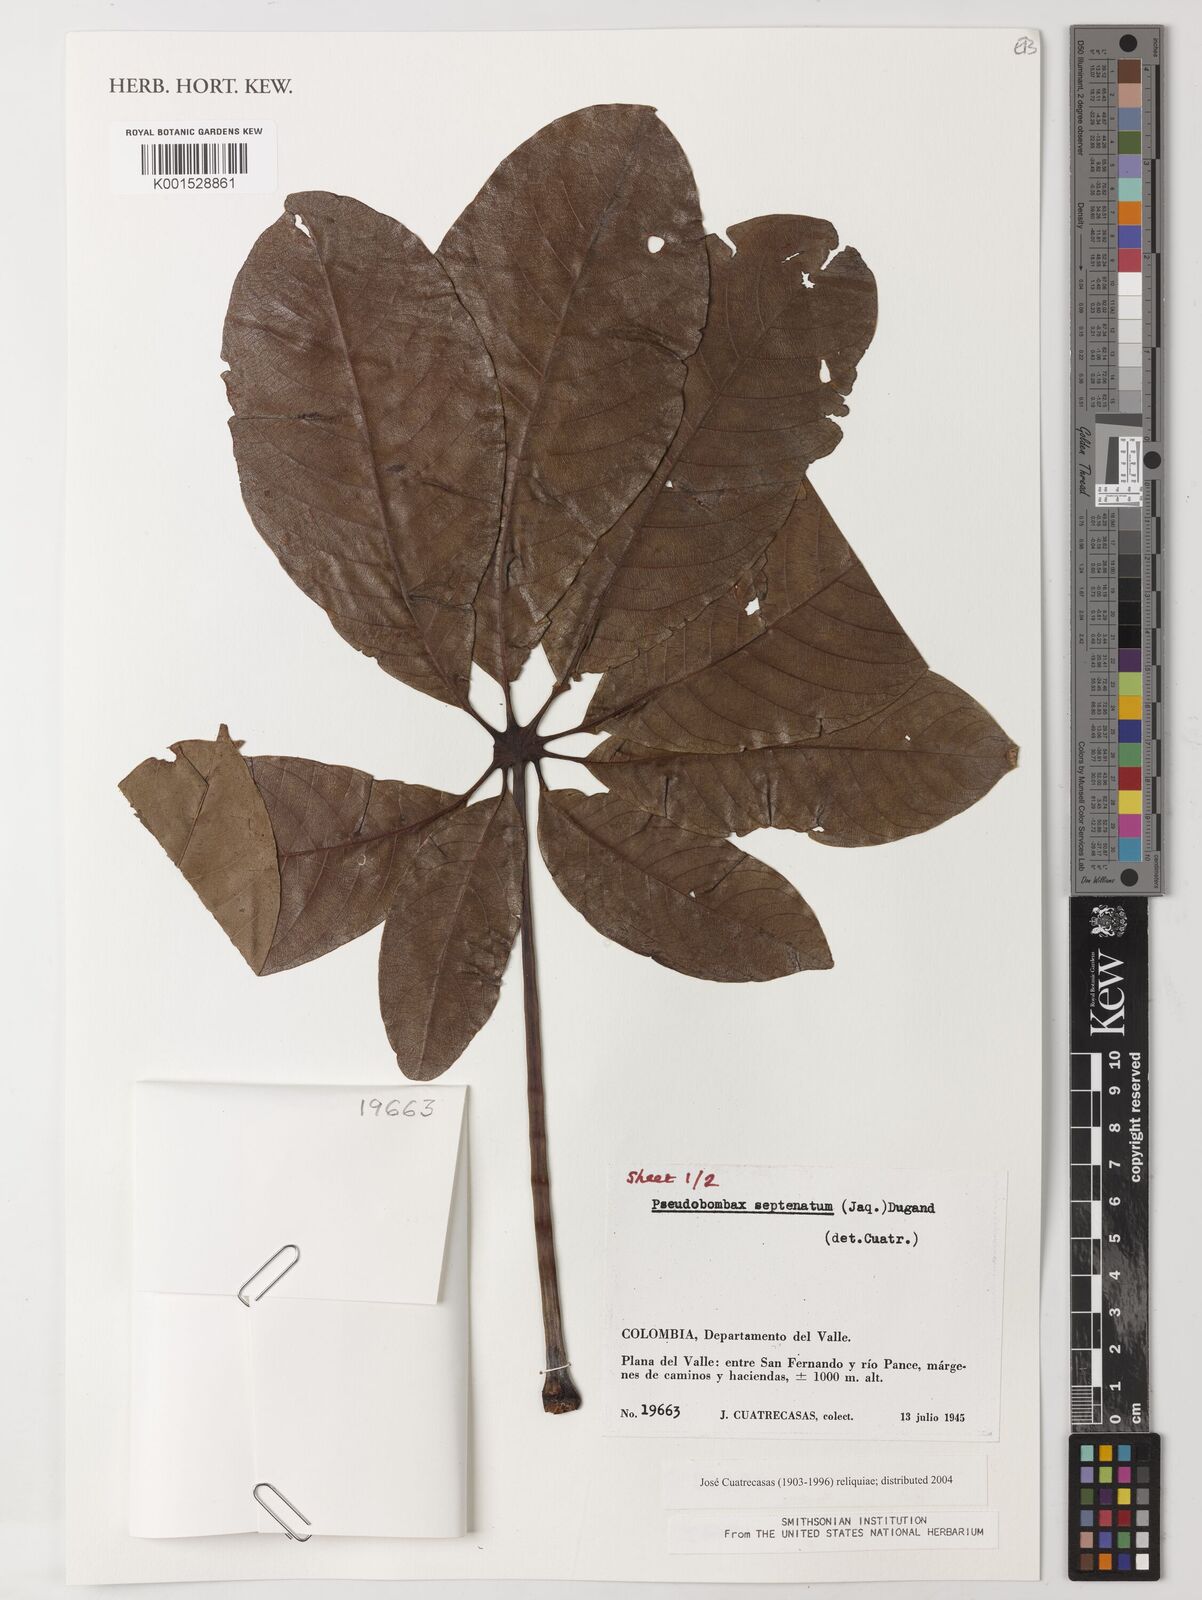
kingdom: Plantae
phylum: Tracheophyta
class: Magnoliopsida
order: Malvales
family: Malvaceae
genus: Pseudobombax
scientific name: Pseudobombax septenatum
